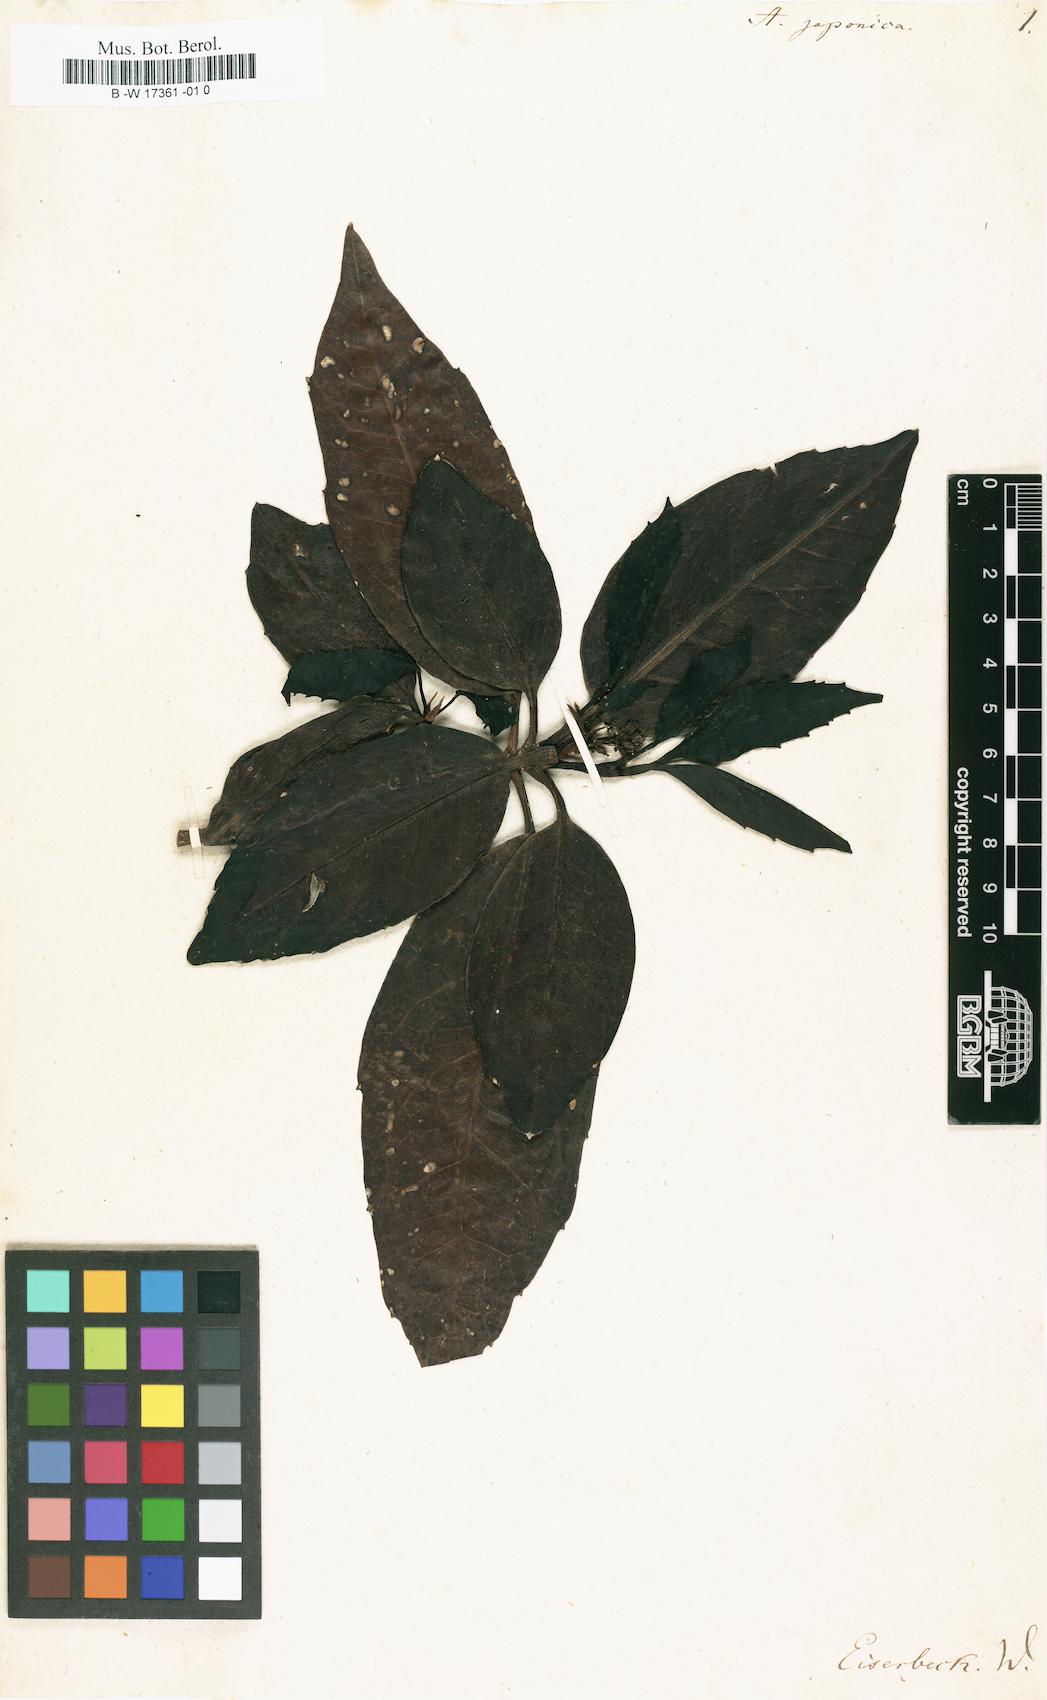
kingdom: Plantae
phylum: Tracheophyta
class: Magnoliopsida
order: Garryales
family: Garryaceae
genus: Aucuba
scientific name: Aucuba japonica
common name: Spotted-laurel
